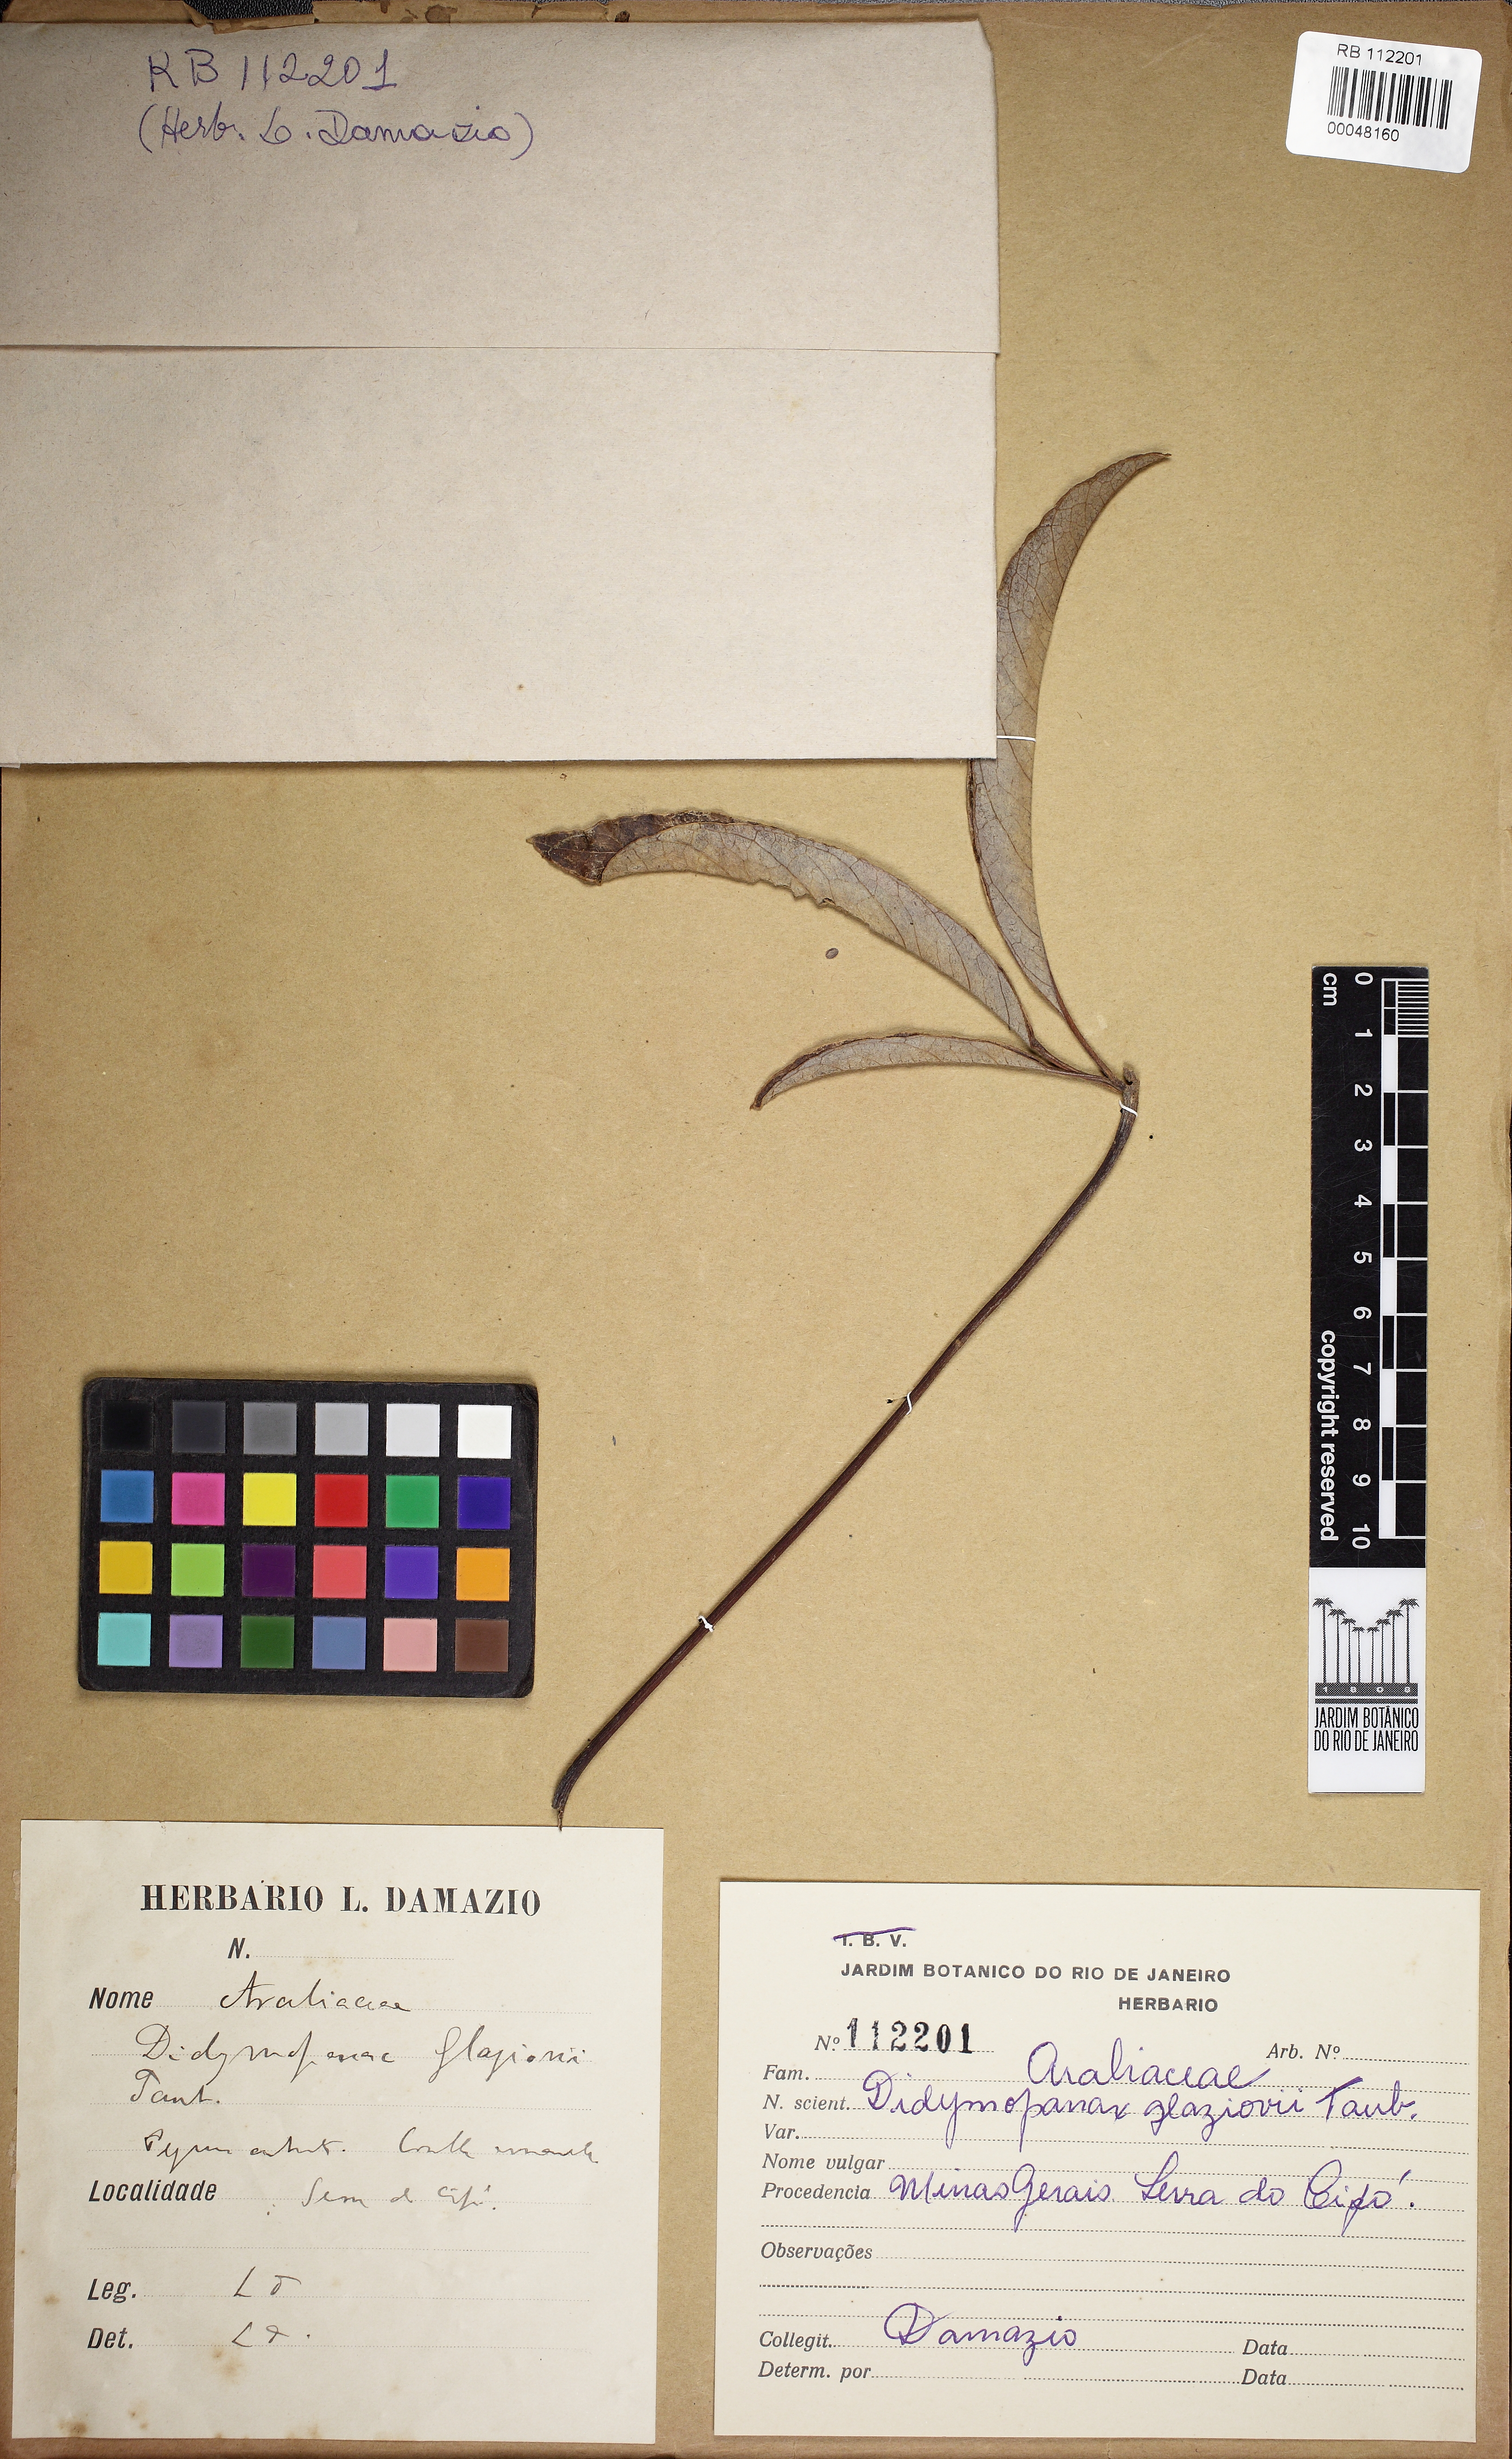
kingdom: Plantae
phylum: Tracheophyta
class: Magnoliopsida
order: Apiales
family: Araliaceae
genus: Didymopanax
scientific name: Didymopanax glaziovii
